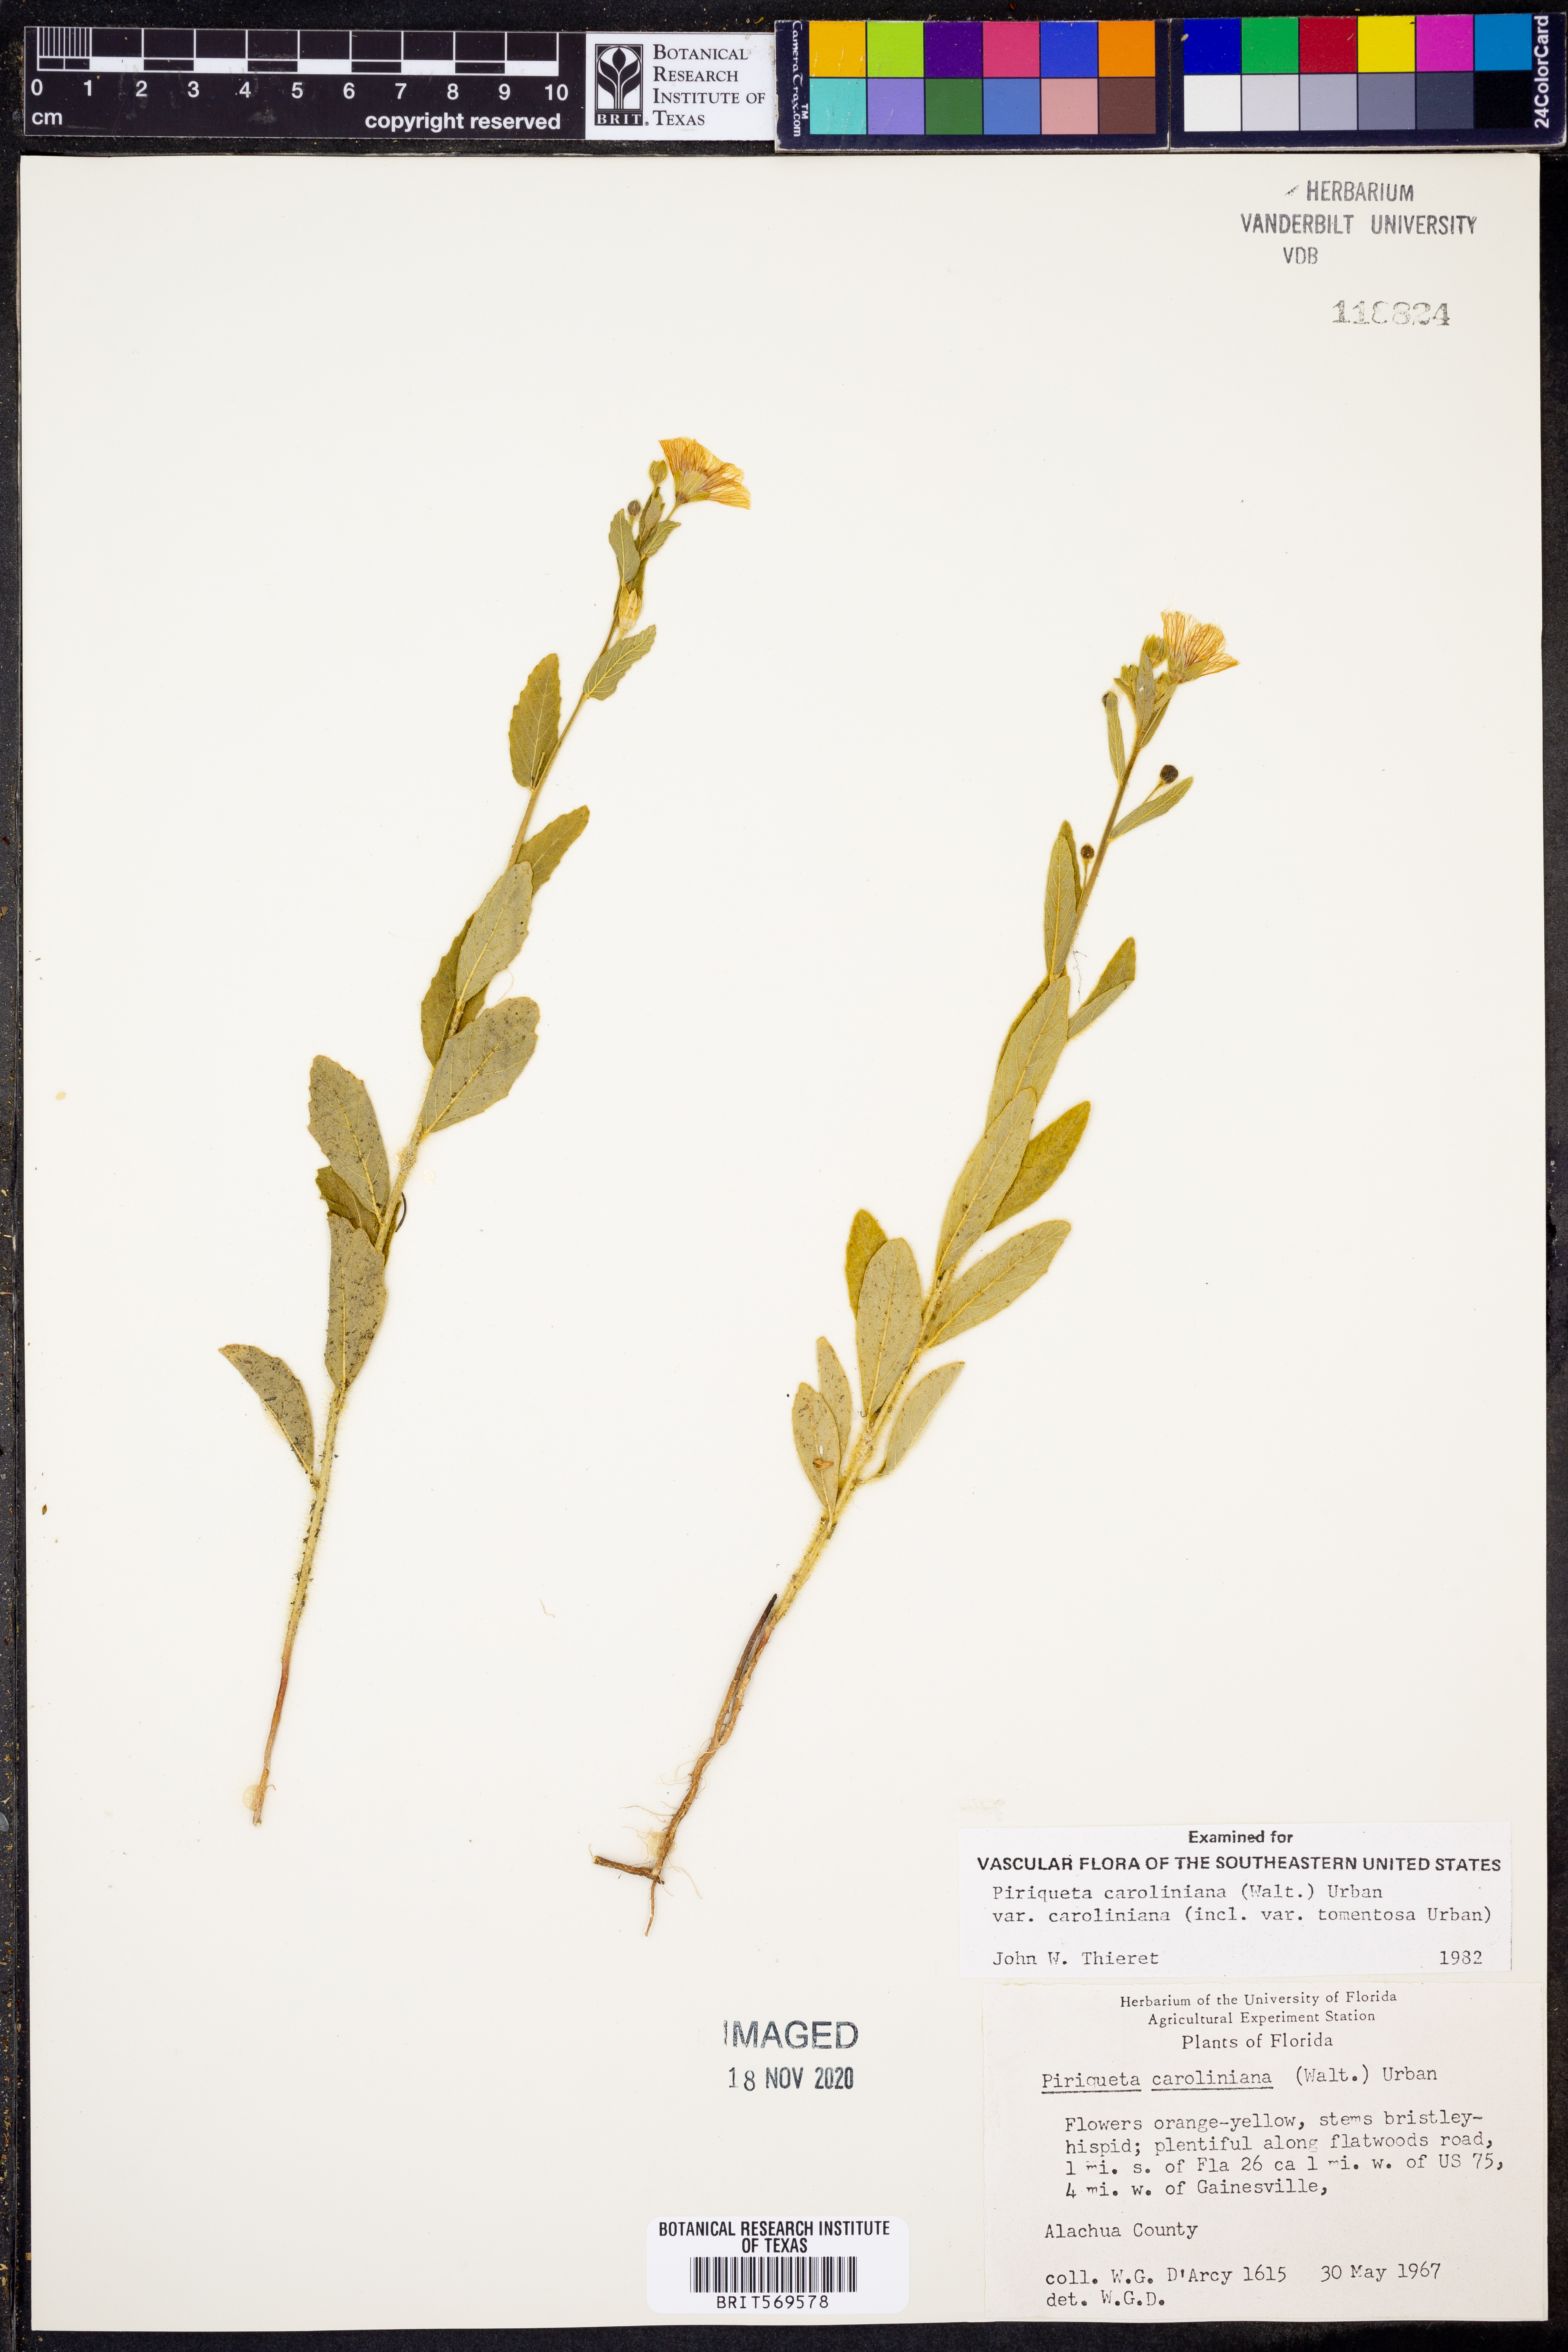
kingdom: Plantae
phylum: Tracheophyta
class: Magnoliopsida
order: Malpighiales
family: Turneraceae
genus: Piriqueta
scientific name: Piriqueta cistoides
